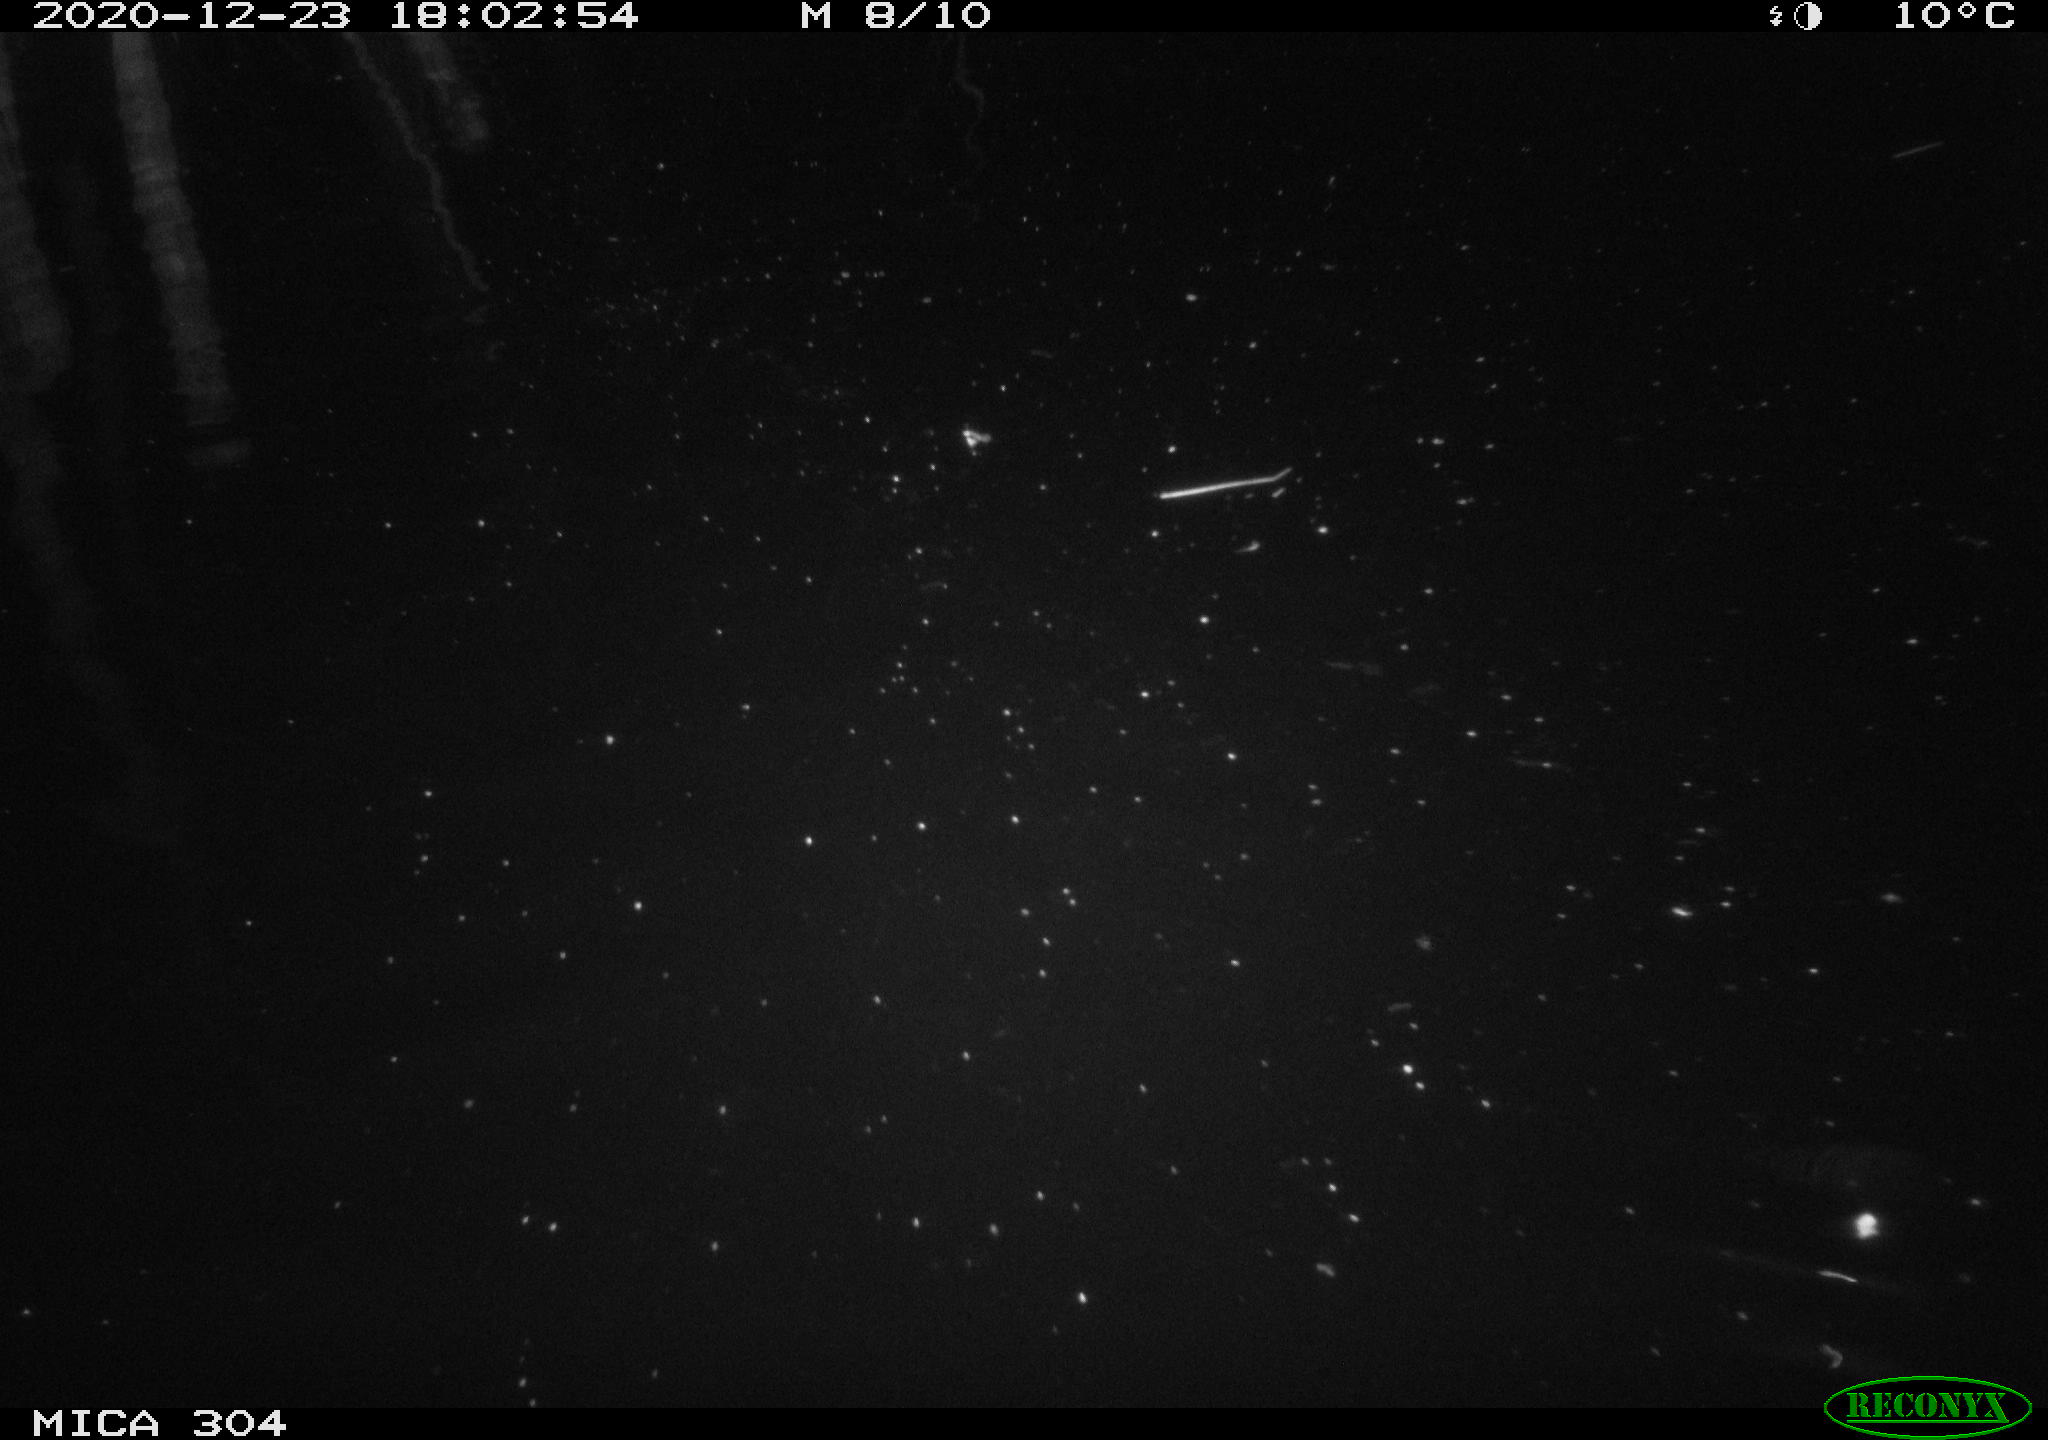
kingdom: Animalia
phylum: Chordata
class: Mammalia
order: Rodentia
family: Cricetidae
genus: Ondatra
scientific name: Ondatra zibethicus
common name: Muskrat
